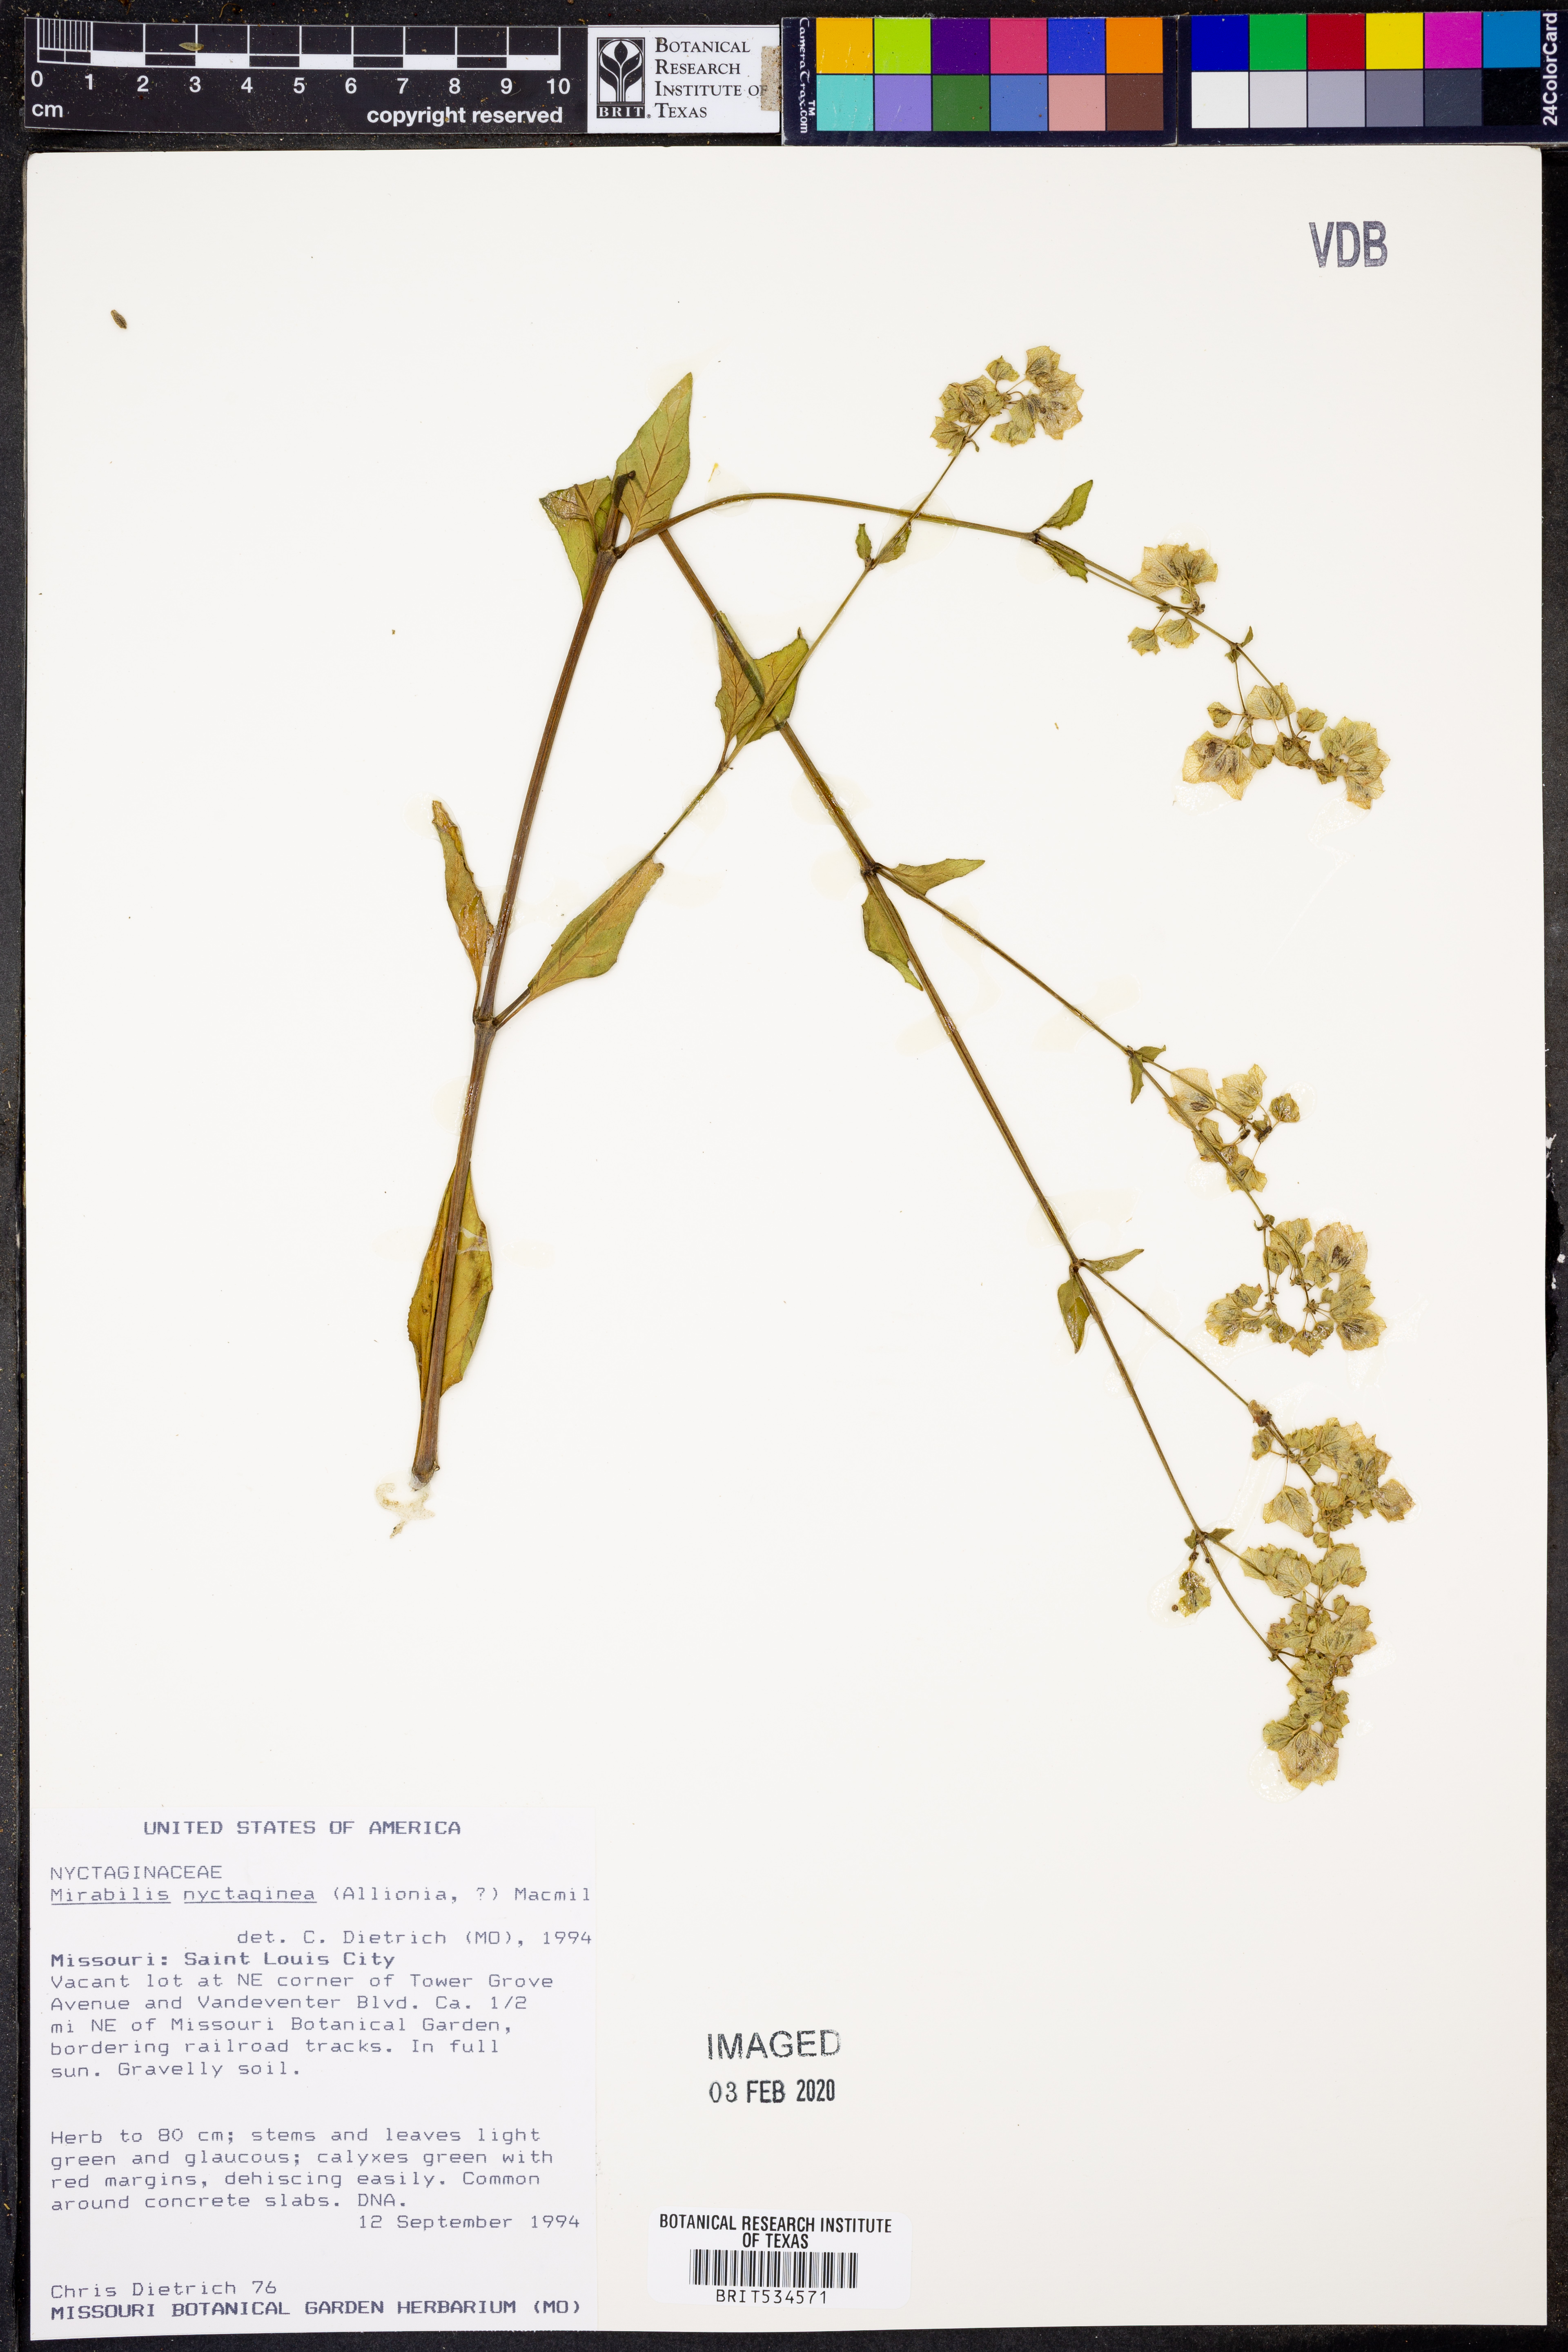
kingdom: Plantae
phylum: Tracheophyta
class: Magnoliopsida
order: Caryophyllales
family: Nyctaginaceae
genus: Mirabilis
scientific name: Mirabilis nyctaginea
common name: Umbrella wort
